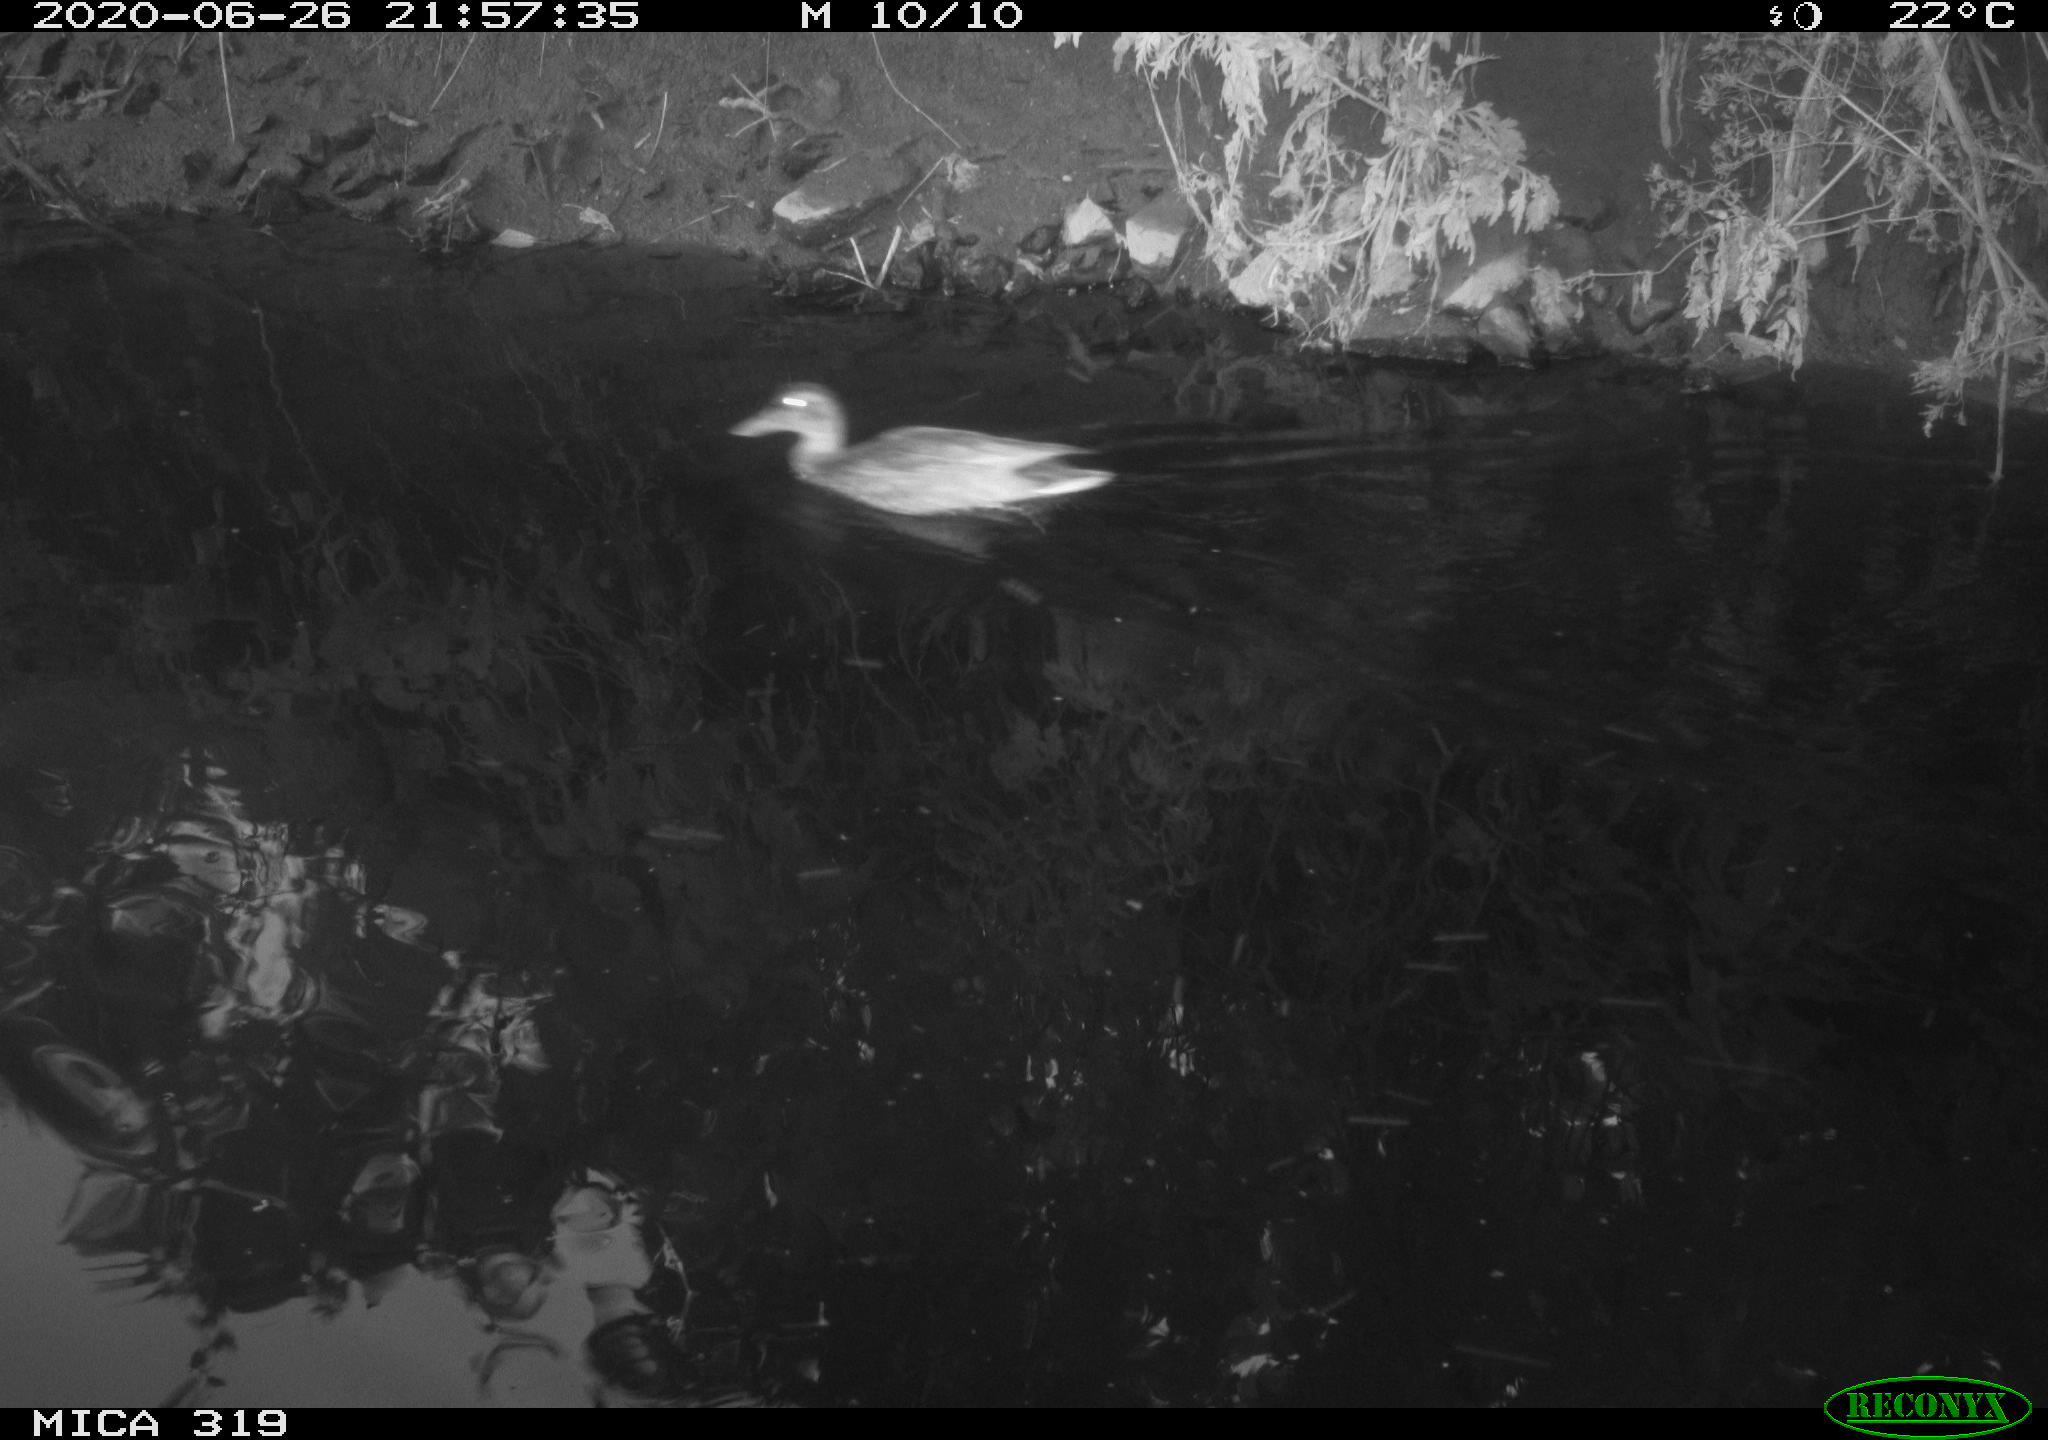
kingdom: Animalia
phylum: Chordata
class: Aves
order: Anseriformes
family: Anatidae
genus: Anas
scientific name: Anas platyrhynchos
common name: Mallard
